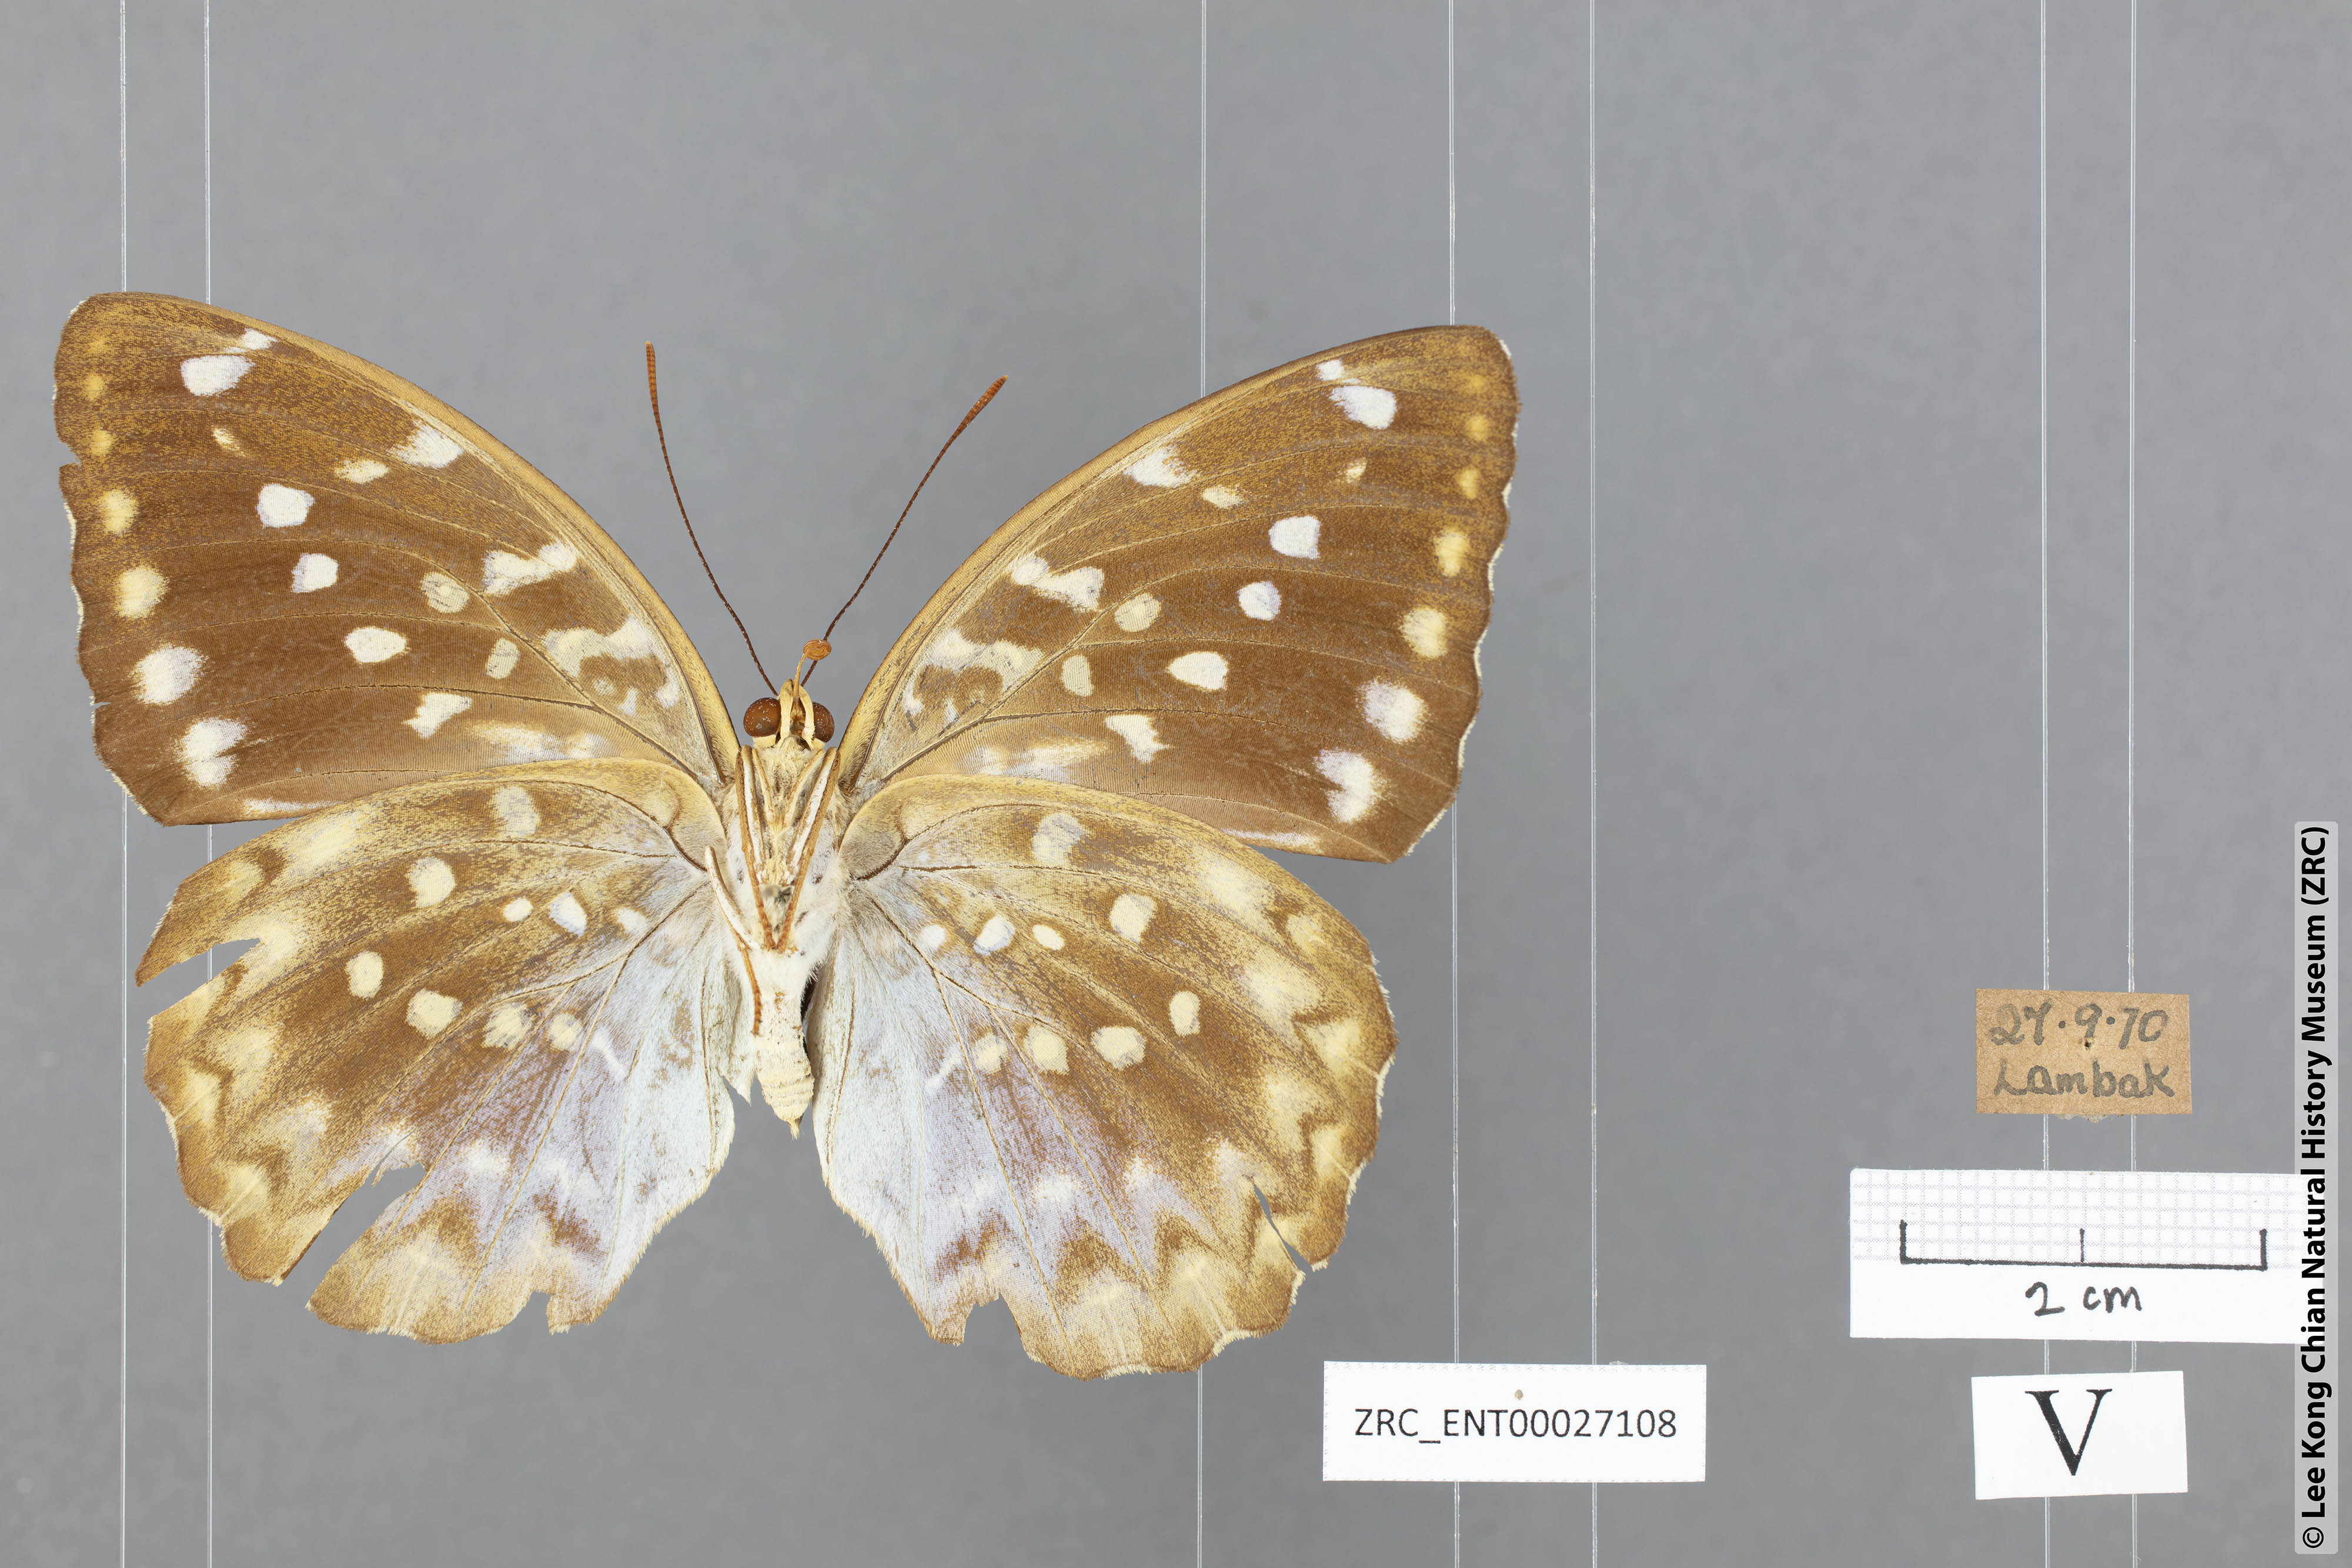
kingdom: Animalia
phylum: Arthropoda
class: Insecta
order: Lepidoptera
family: Nymphalidae
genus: Lexias
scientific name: Lexias canescens
